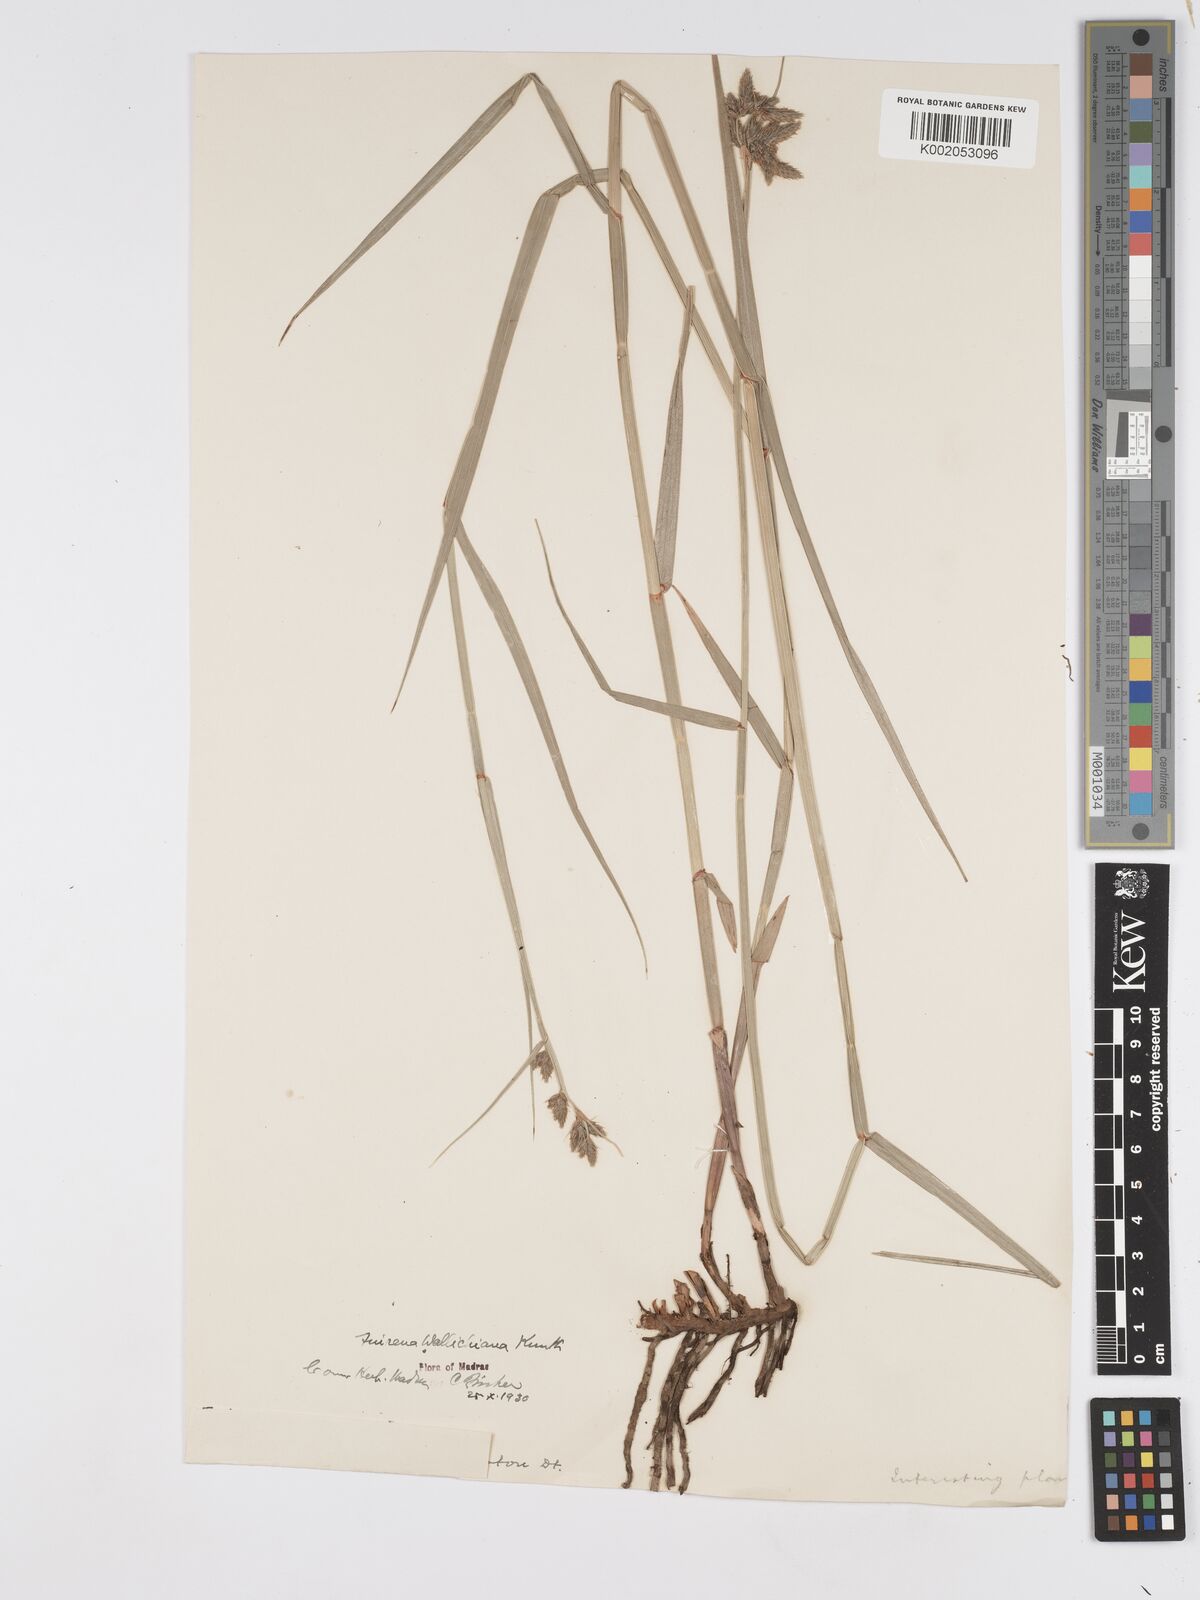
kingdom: Plantae
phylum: Tracheophyta
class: Liliopsida
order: Poales
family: Cyperaceae
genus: Fuirena
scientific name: Fuirena cuspidata
